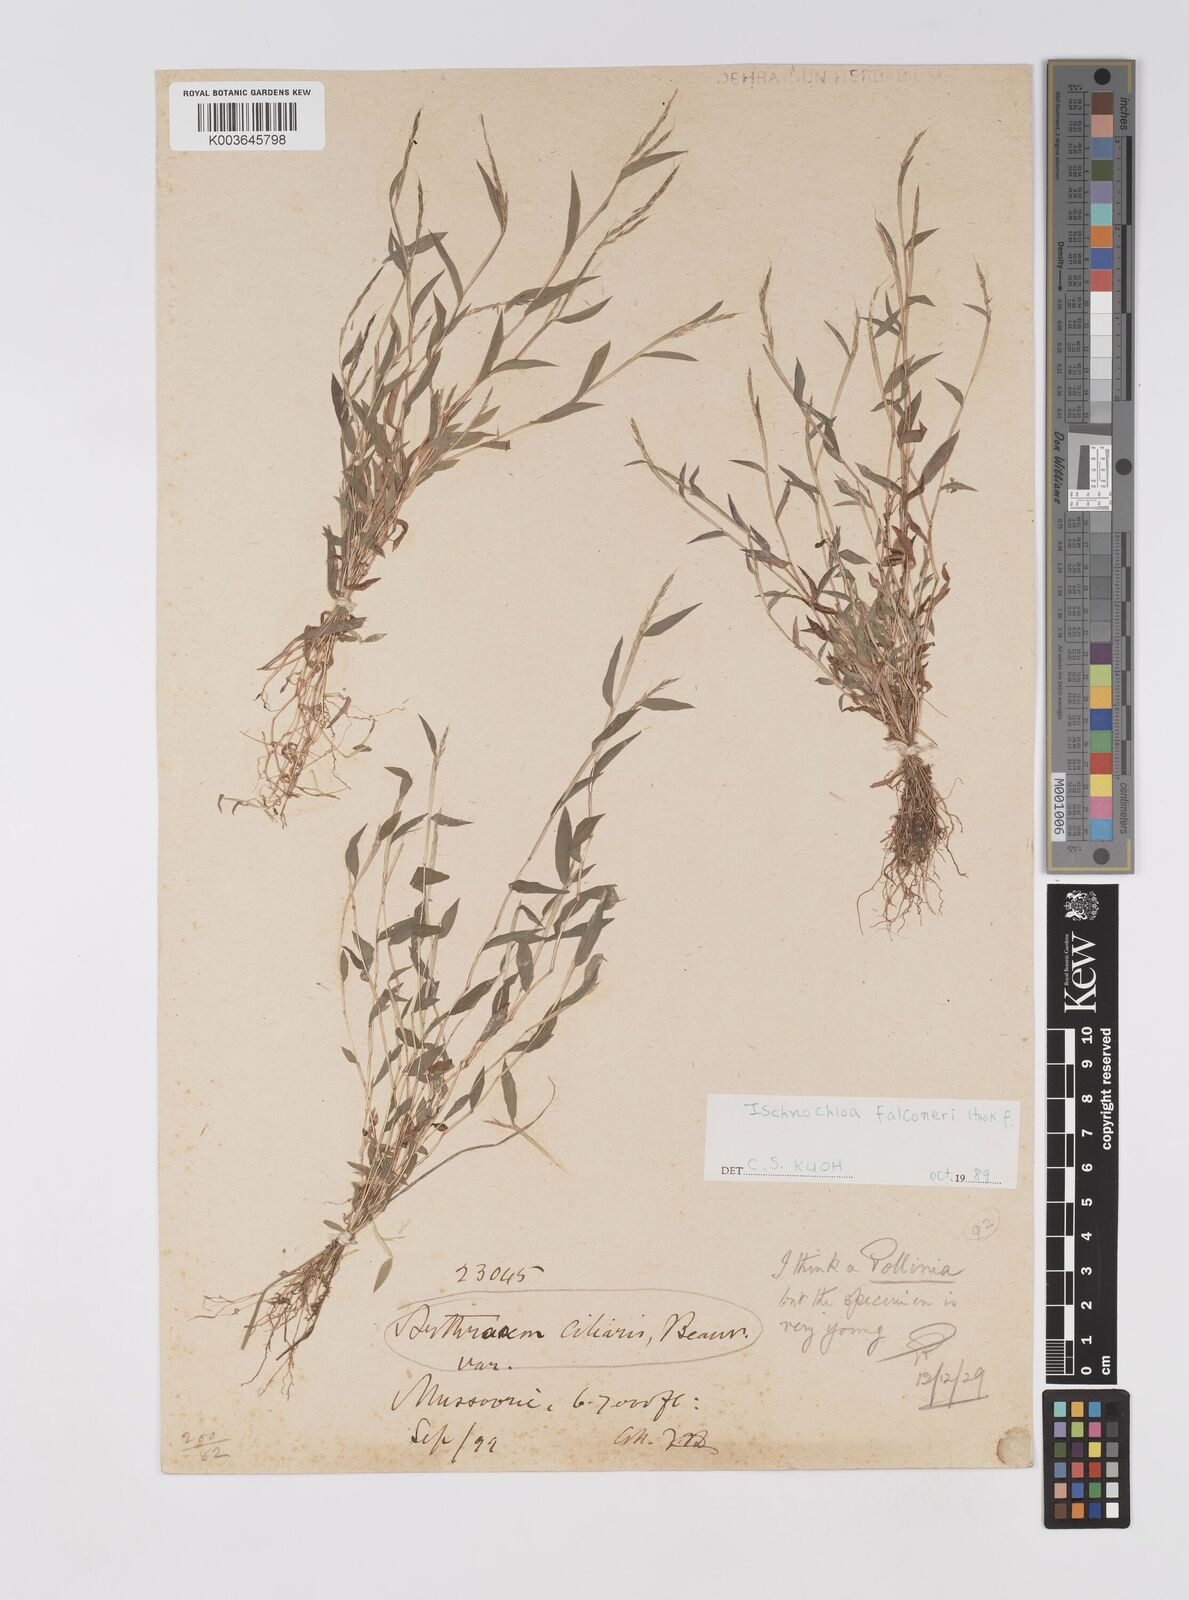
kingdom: Plantae
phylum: Tracheophyta
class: Liliopsida
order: Poales
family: Poaceae
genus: Microstegium
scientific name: Microstegium falconeri
